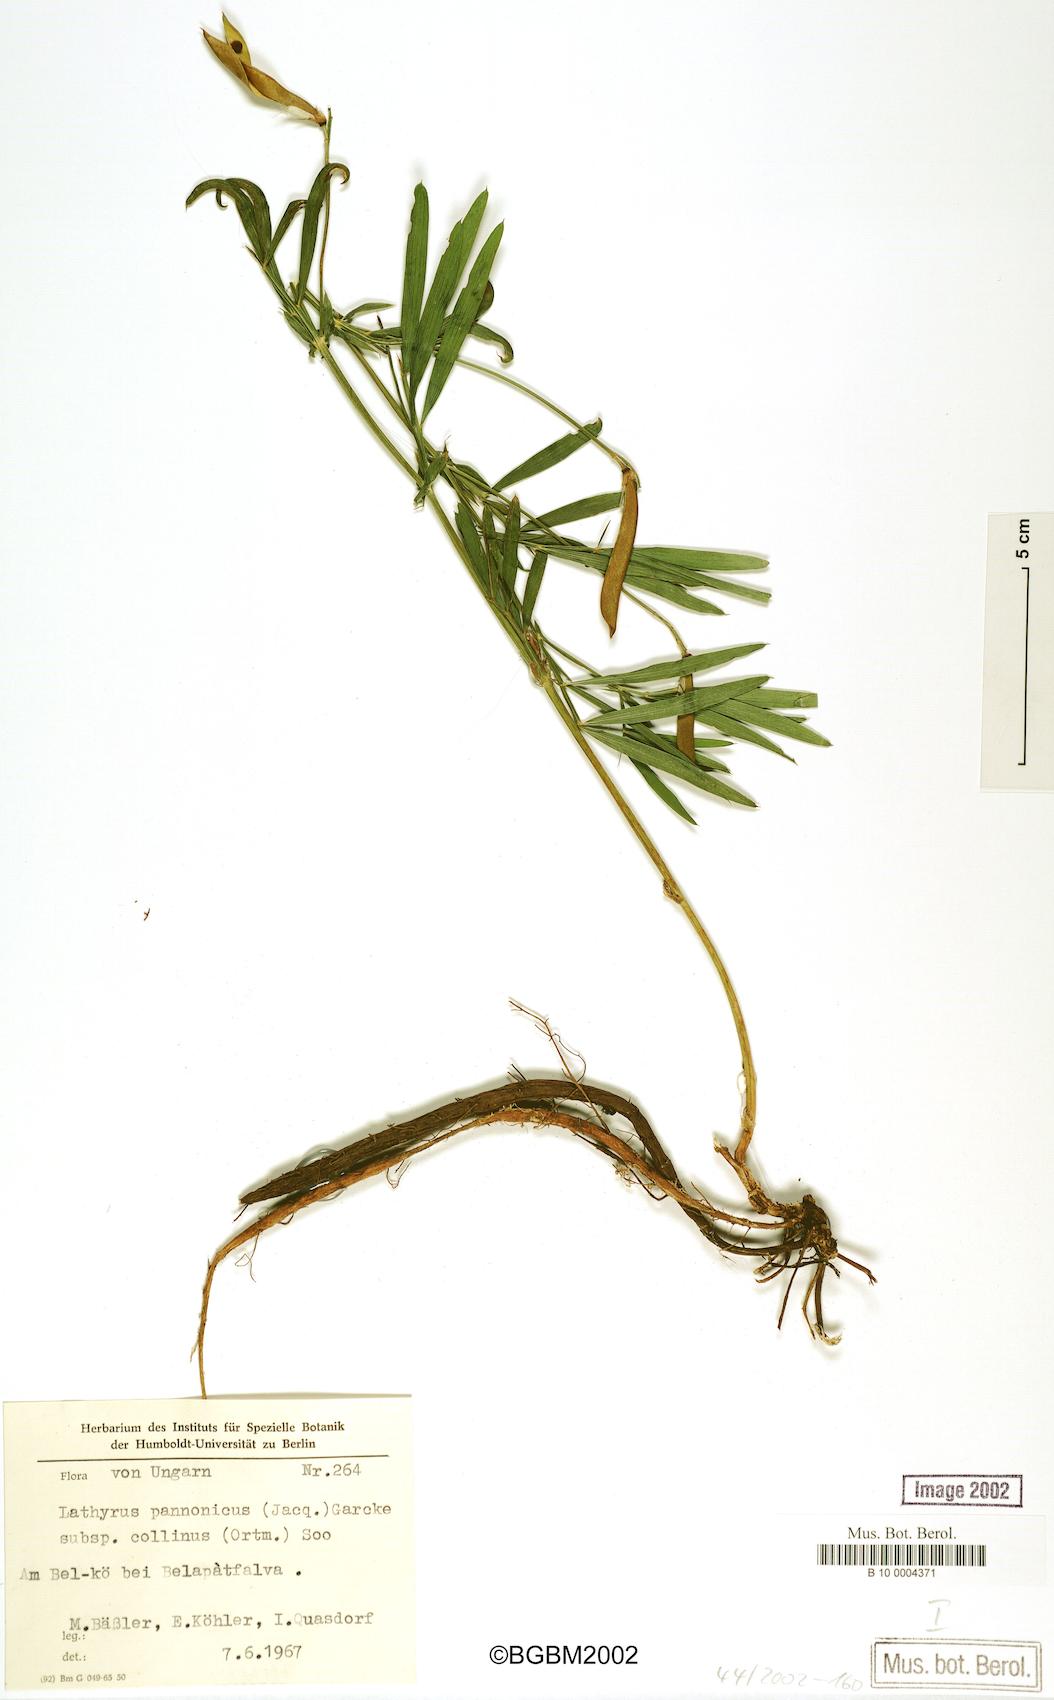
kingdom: Plantae
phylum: Tracheophyta
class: Magnoliopsida
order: Fabales
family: Fabaceae
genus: Lathyrus
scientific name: Lathyrus pannonicus
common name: Pea
